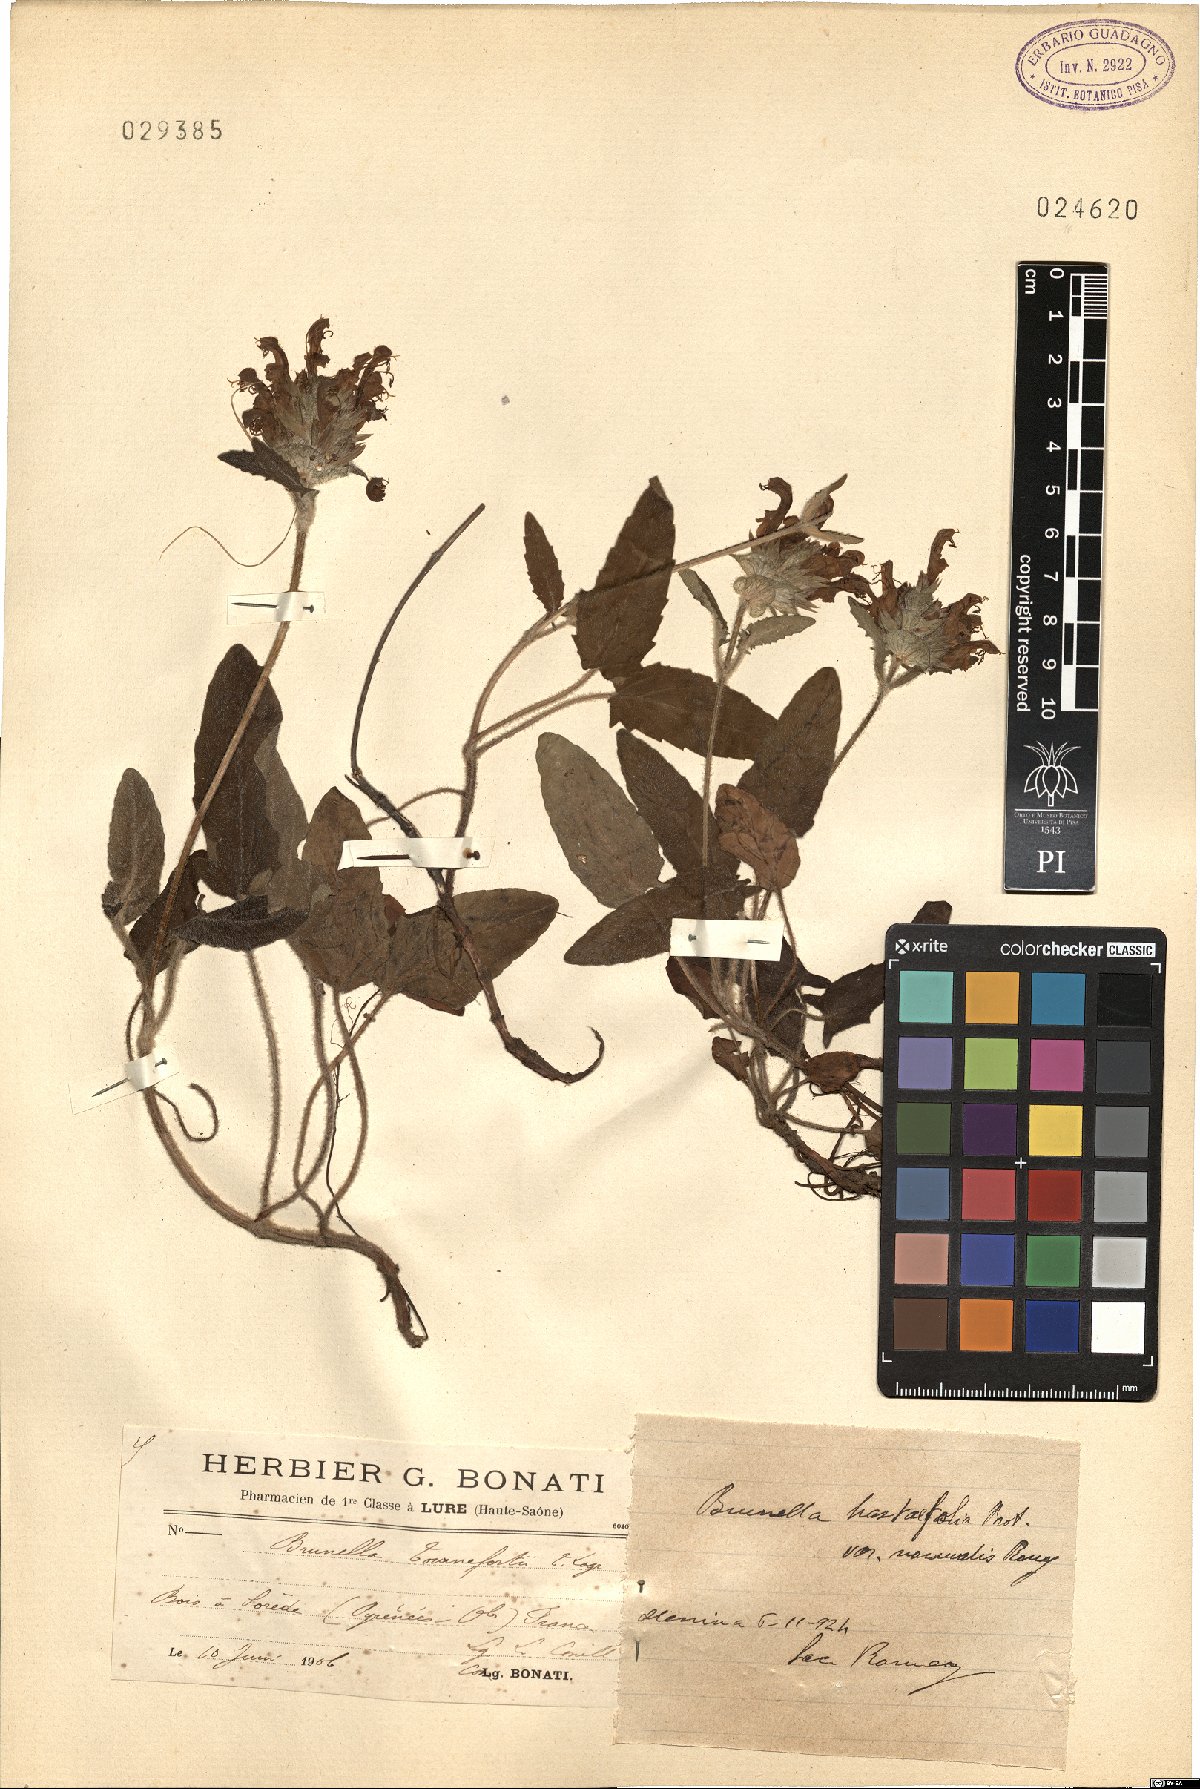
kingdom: Plantae
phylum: Tracheophyta
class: Magnoliopsida
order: Lamiales
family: Lamiaceae
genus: Prunella
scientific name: Prunella grandiflora
